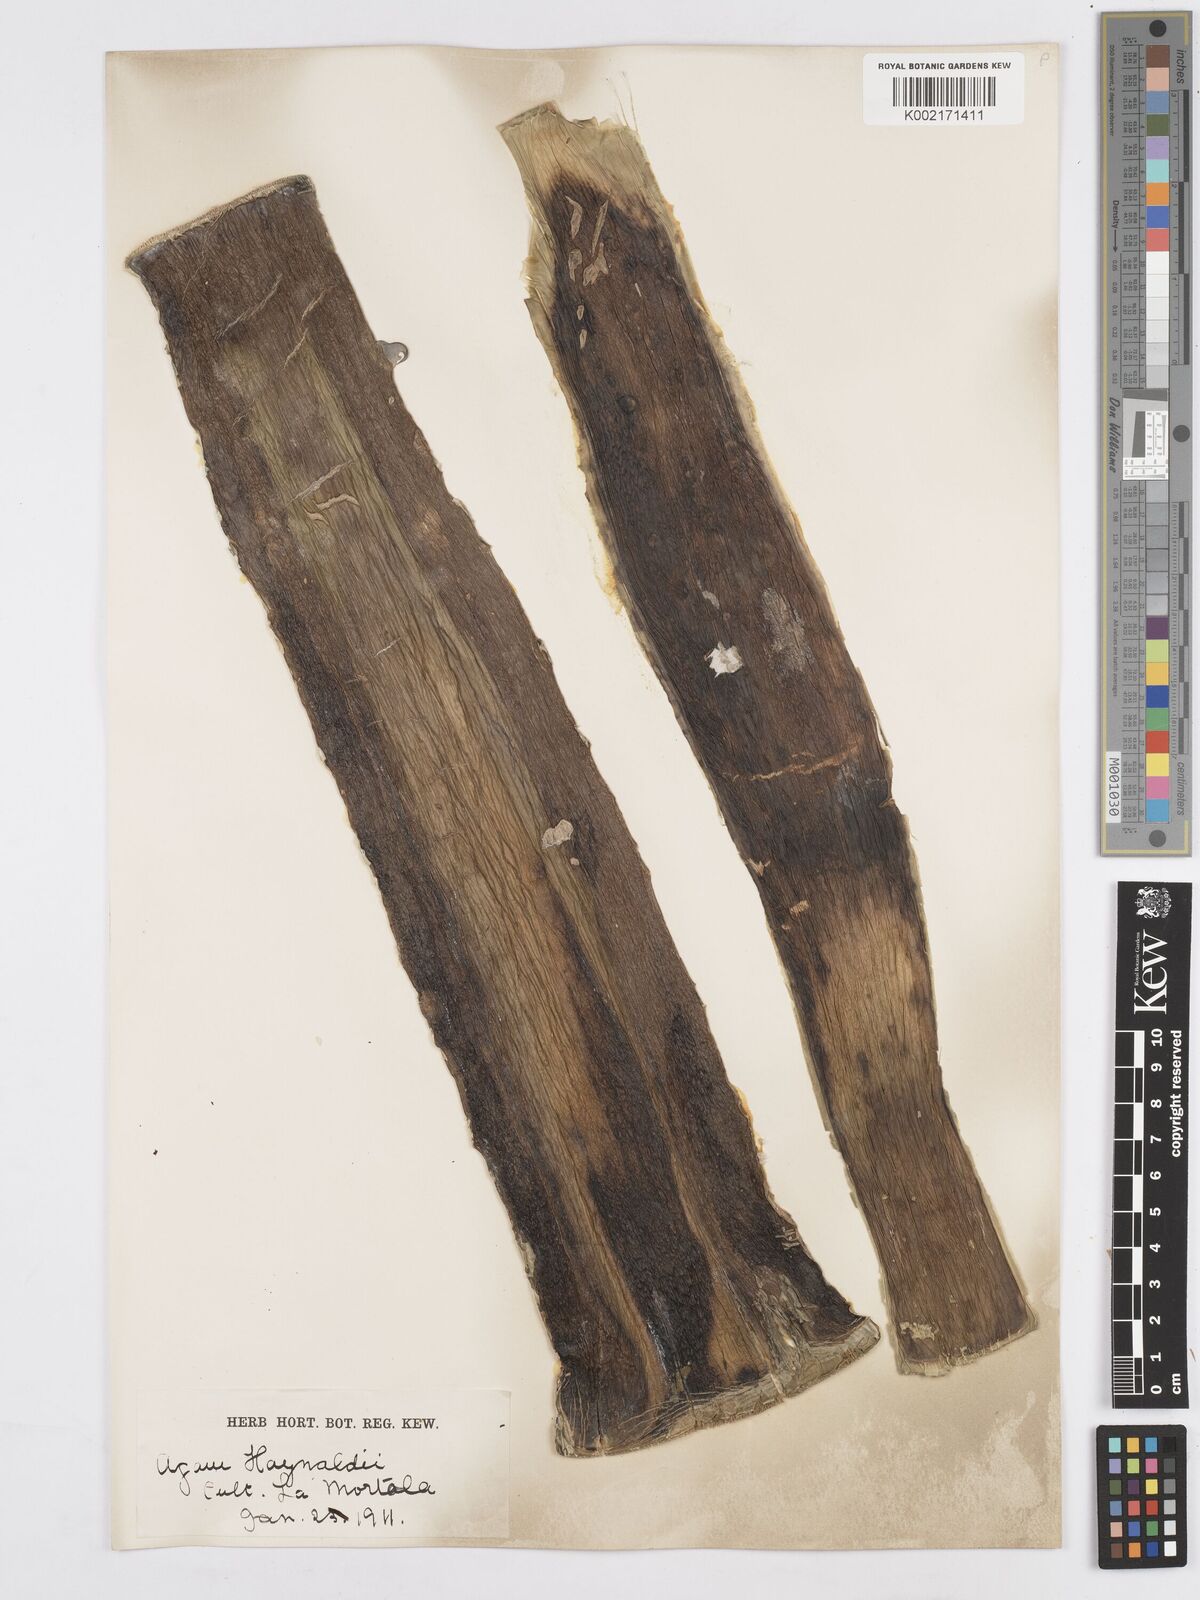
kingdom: Plantae
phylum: Tracheophyta
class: Liliopsida
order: Asparagales
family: Asparagaceae
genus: Agave
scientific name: Agave utahensis
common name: Utah agave
